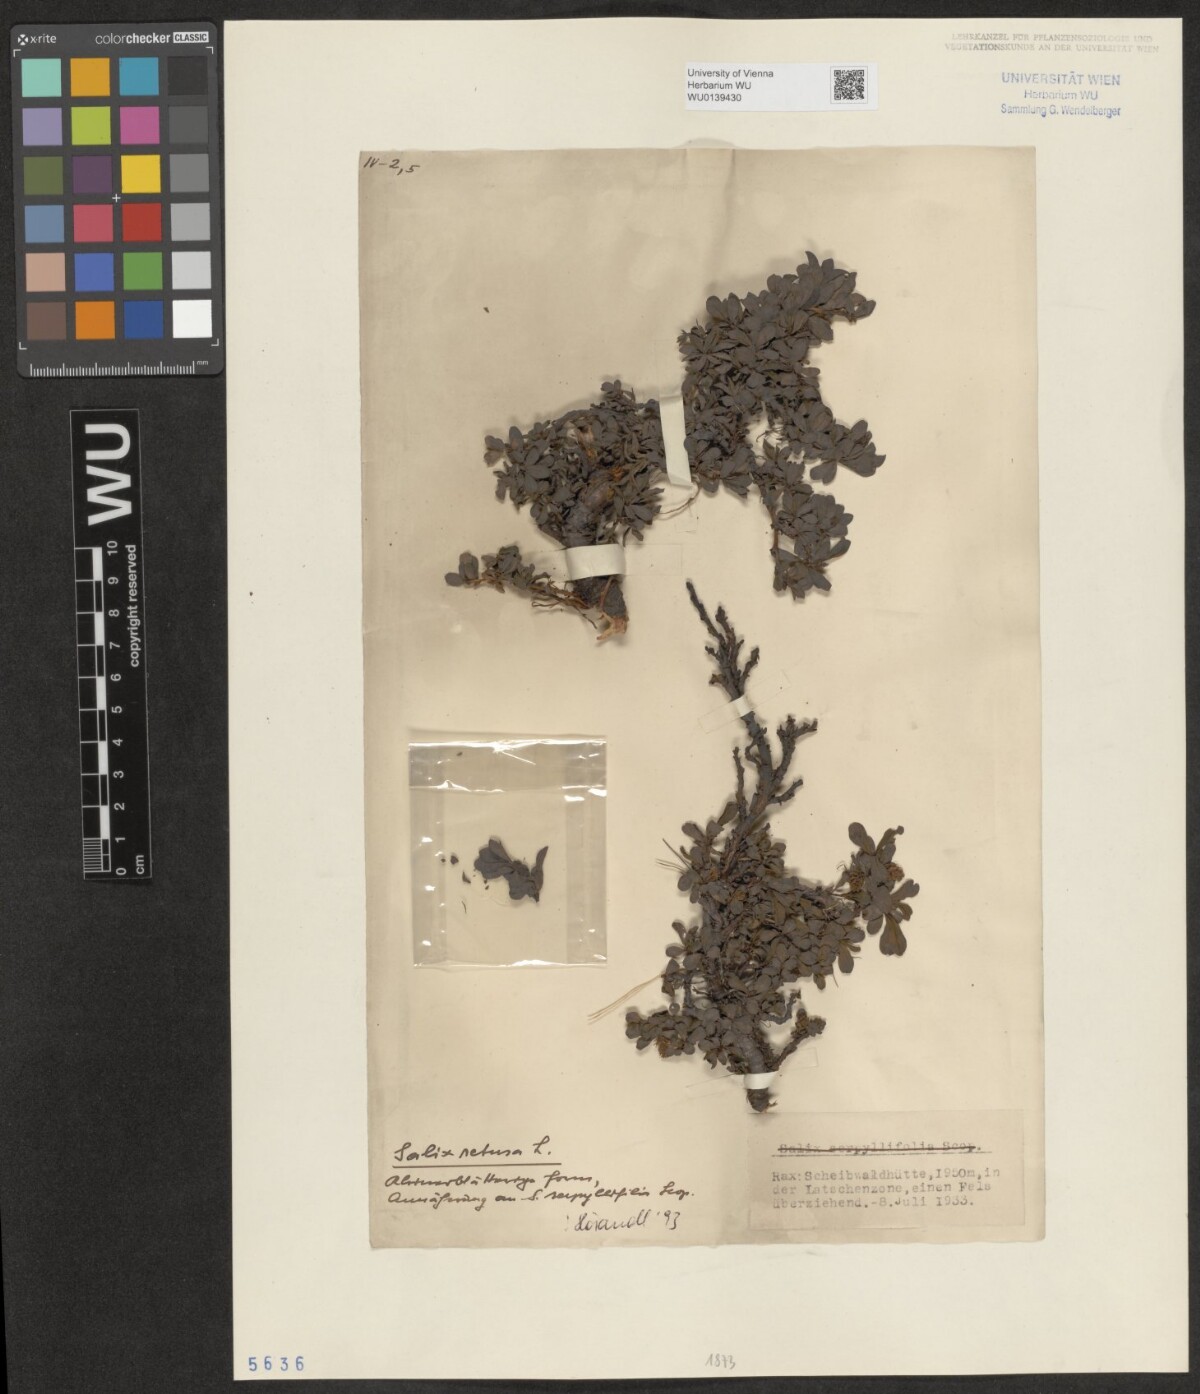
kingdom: Plantae
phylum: Tracheophyta
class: Magnoliopsida
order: Malpighiales
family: Salicaceae
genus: Salix
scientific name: Salix retusa
